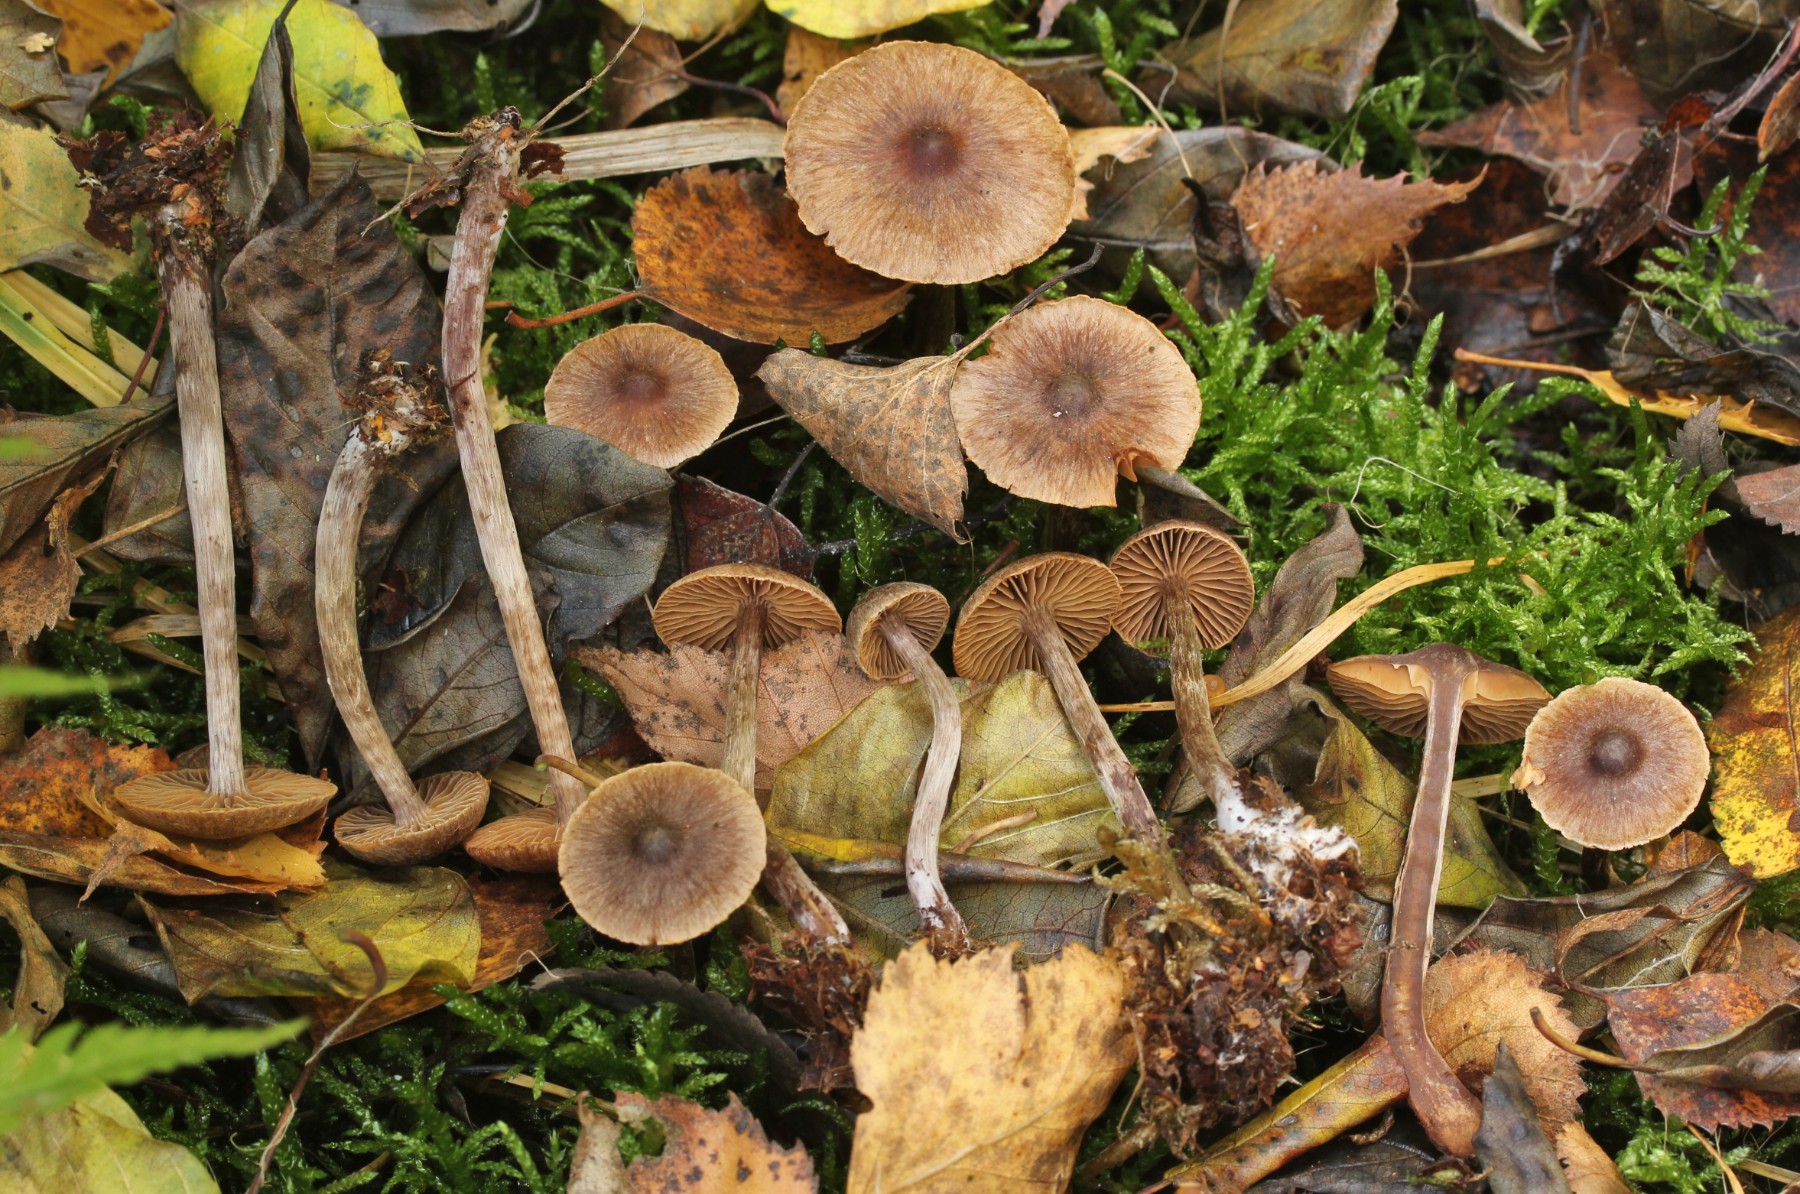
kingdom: Fungi
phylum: Basidiomycota
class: Agaricomycetes
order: Agaricales
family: Cortinariaceae
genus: Cortinarius
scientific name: Cortinarius umbrinolens
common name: mørk slørhat
